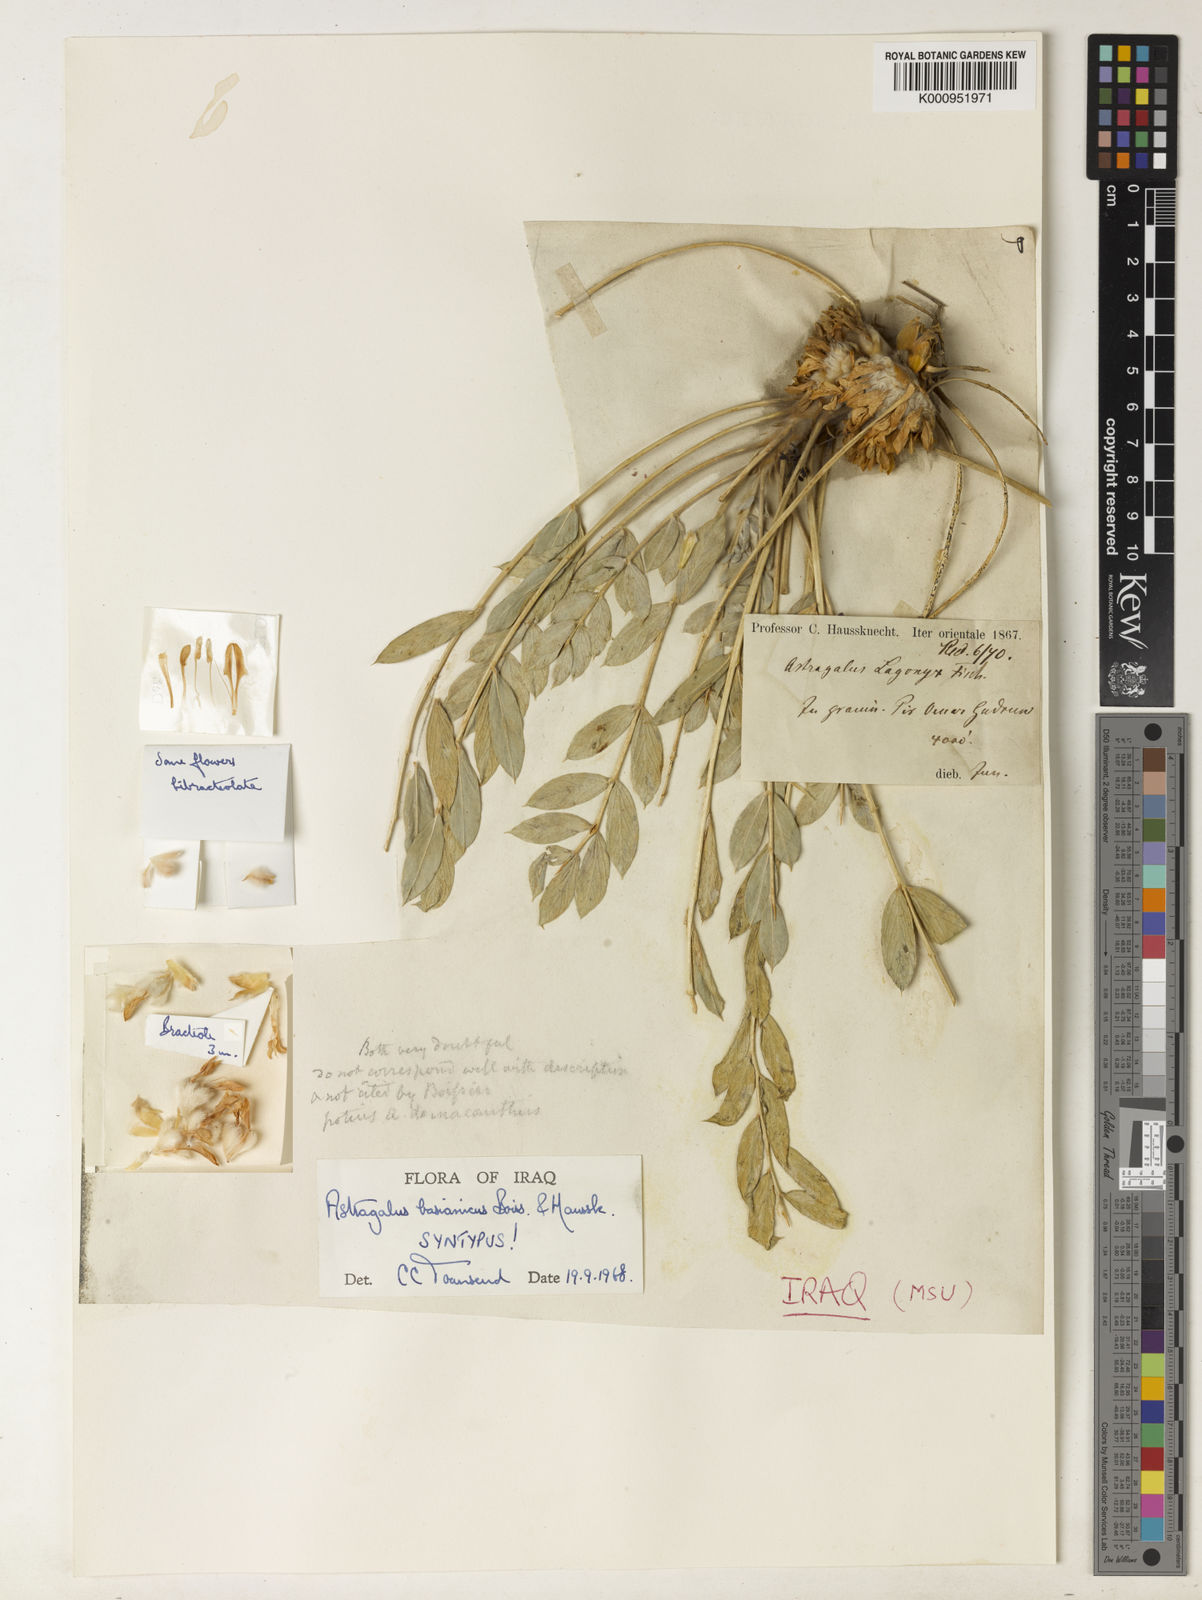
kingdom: Plantae
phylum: Tracheophyta
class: Magnoliopsida
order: Fabales
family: Fabaceae
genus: Astragalus
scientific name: Astragalus amblolepis
